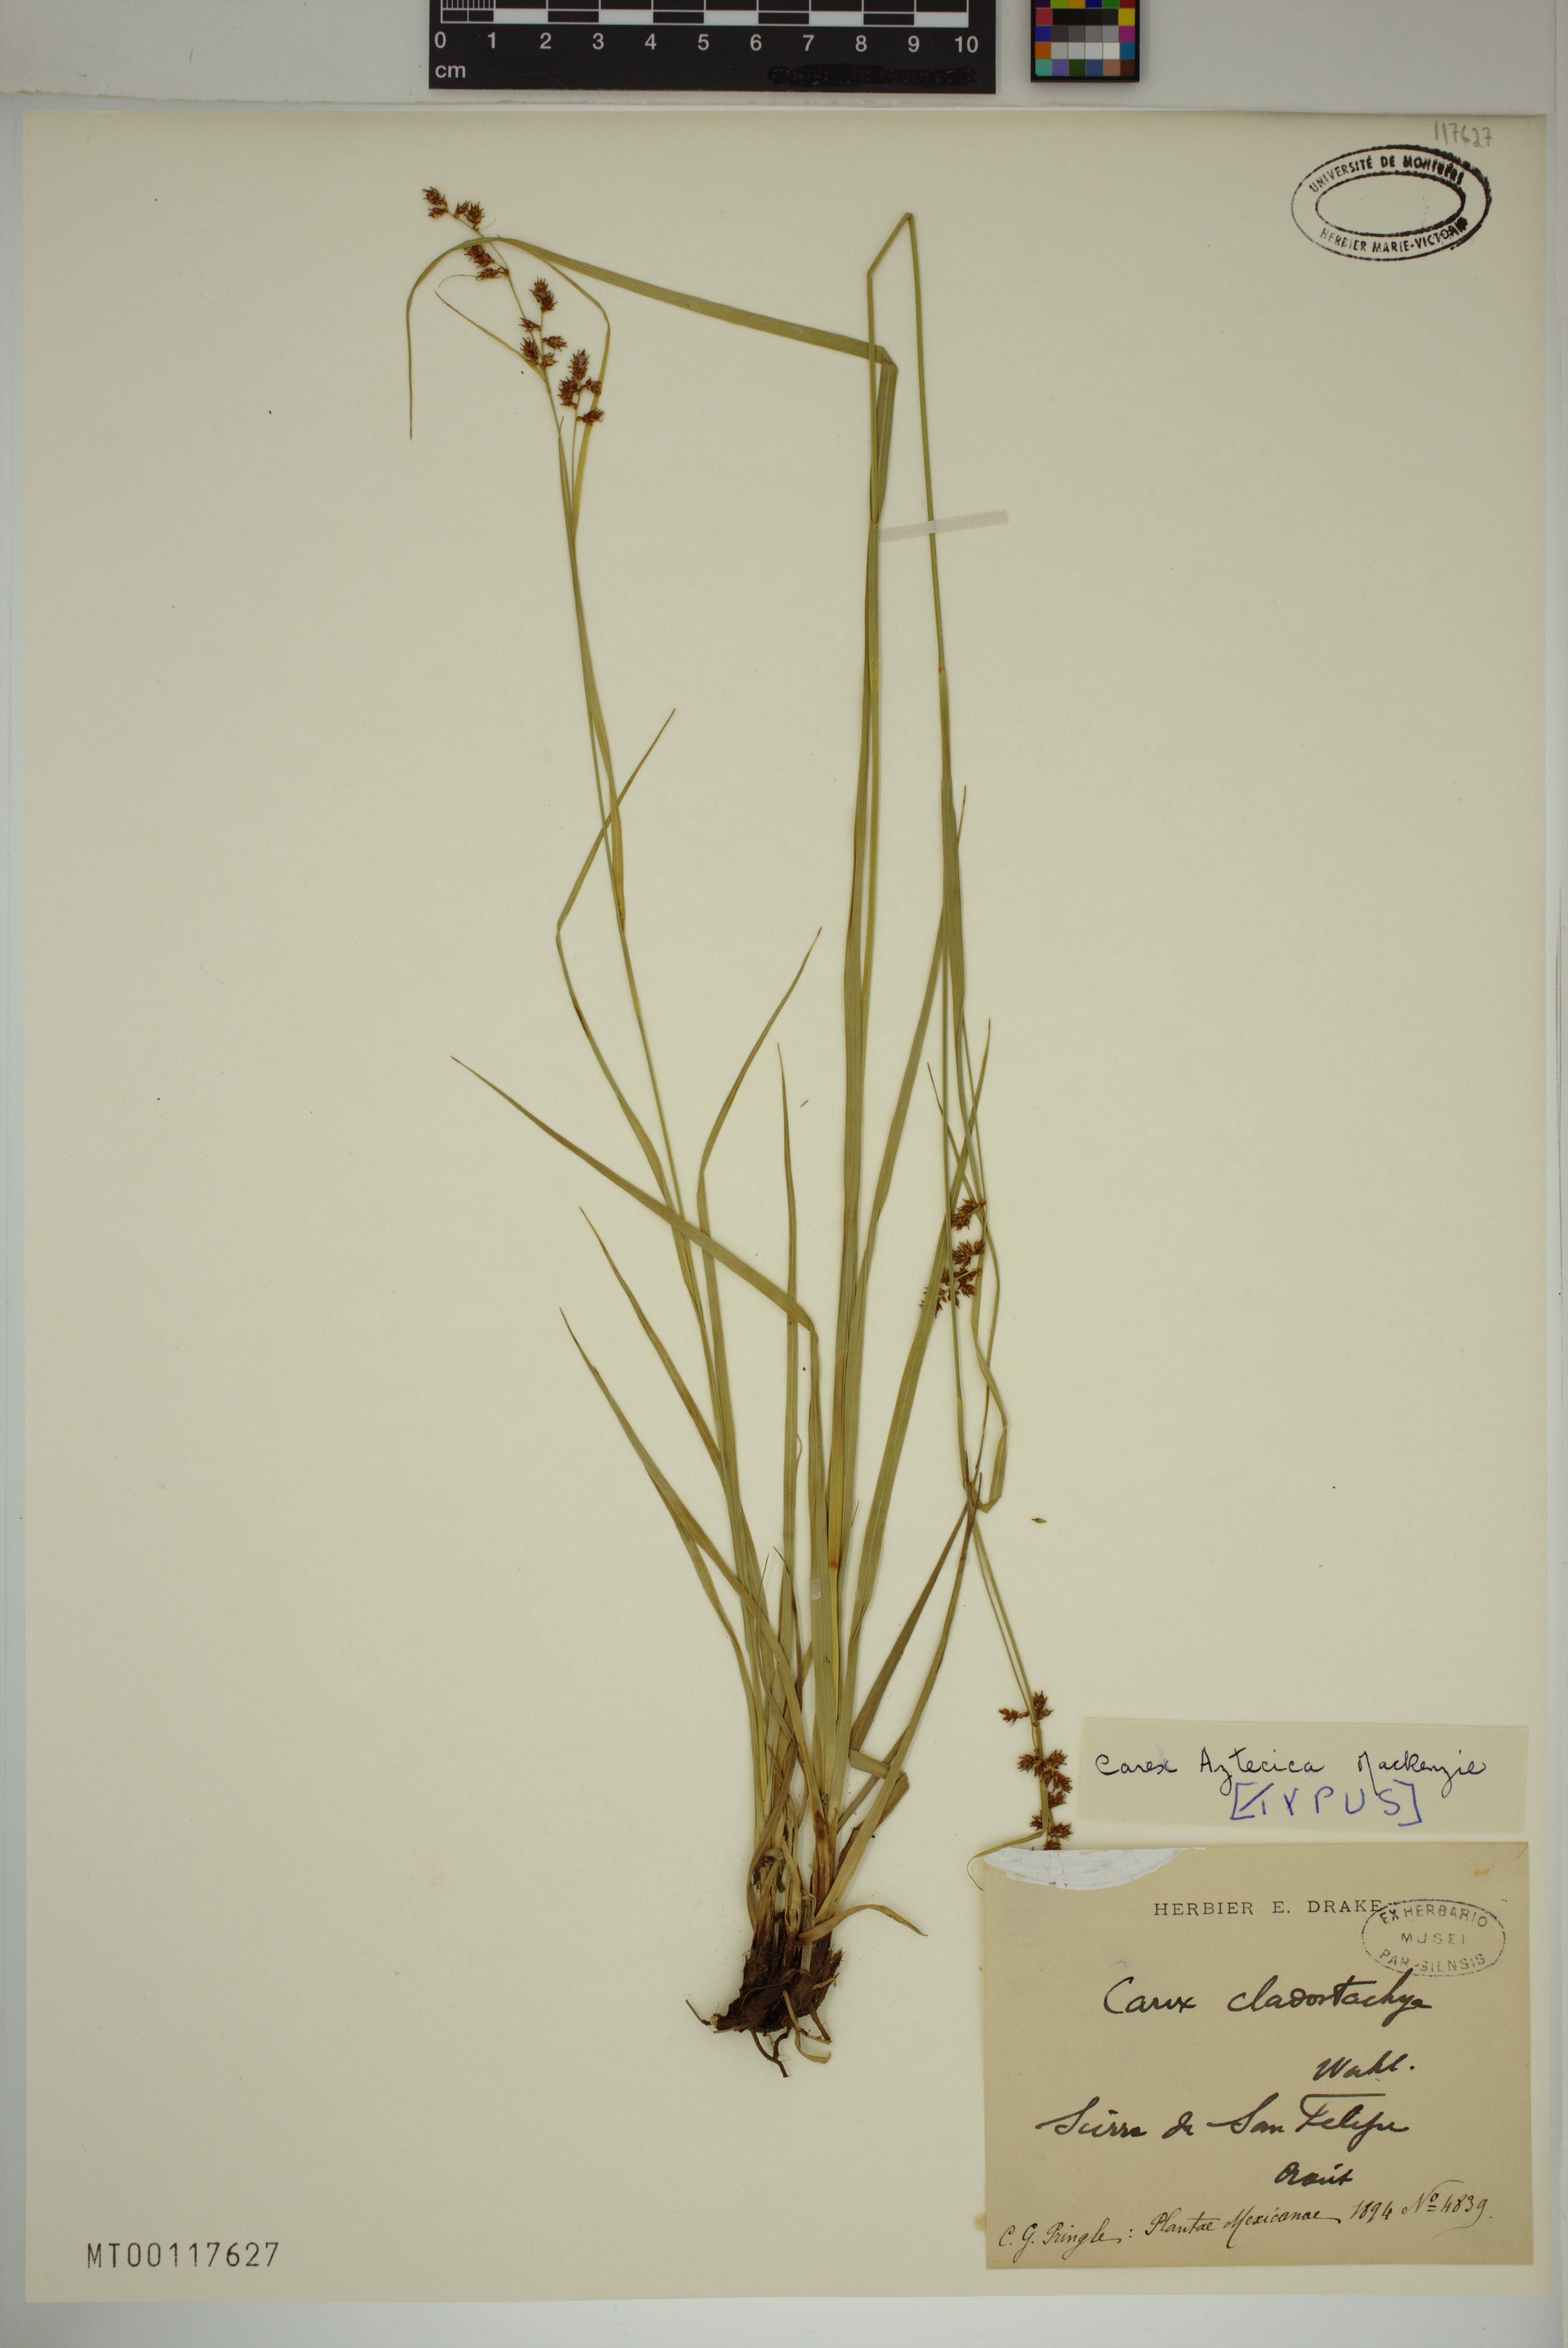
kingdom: Plantae
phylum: Tracheophyta
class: Liliopsida
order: Poales
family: Cyperaceae
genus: Carex
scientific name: Carex aztecica
